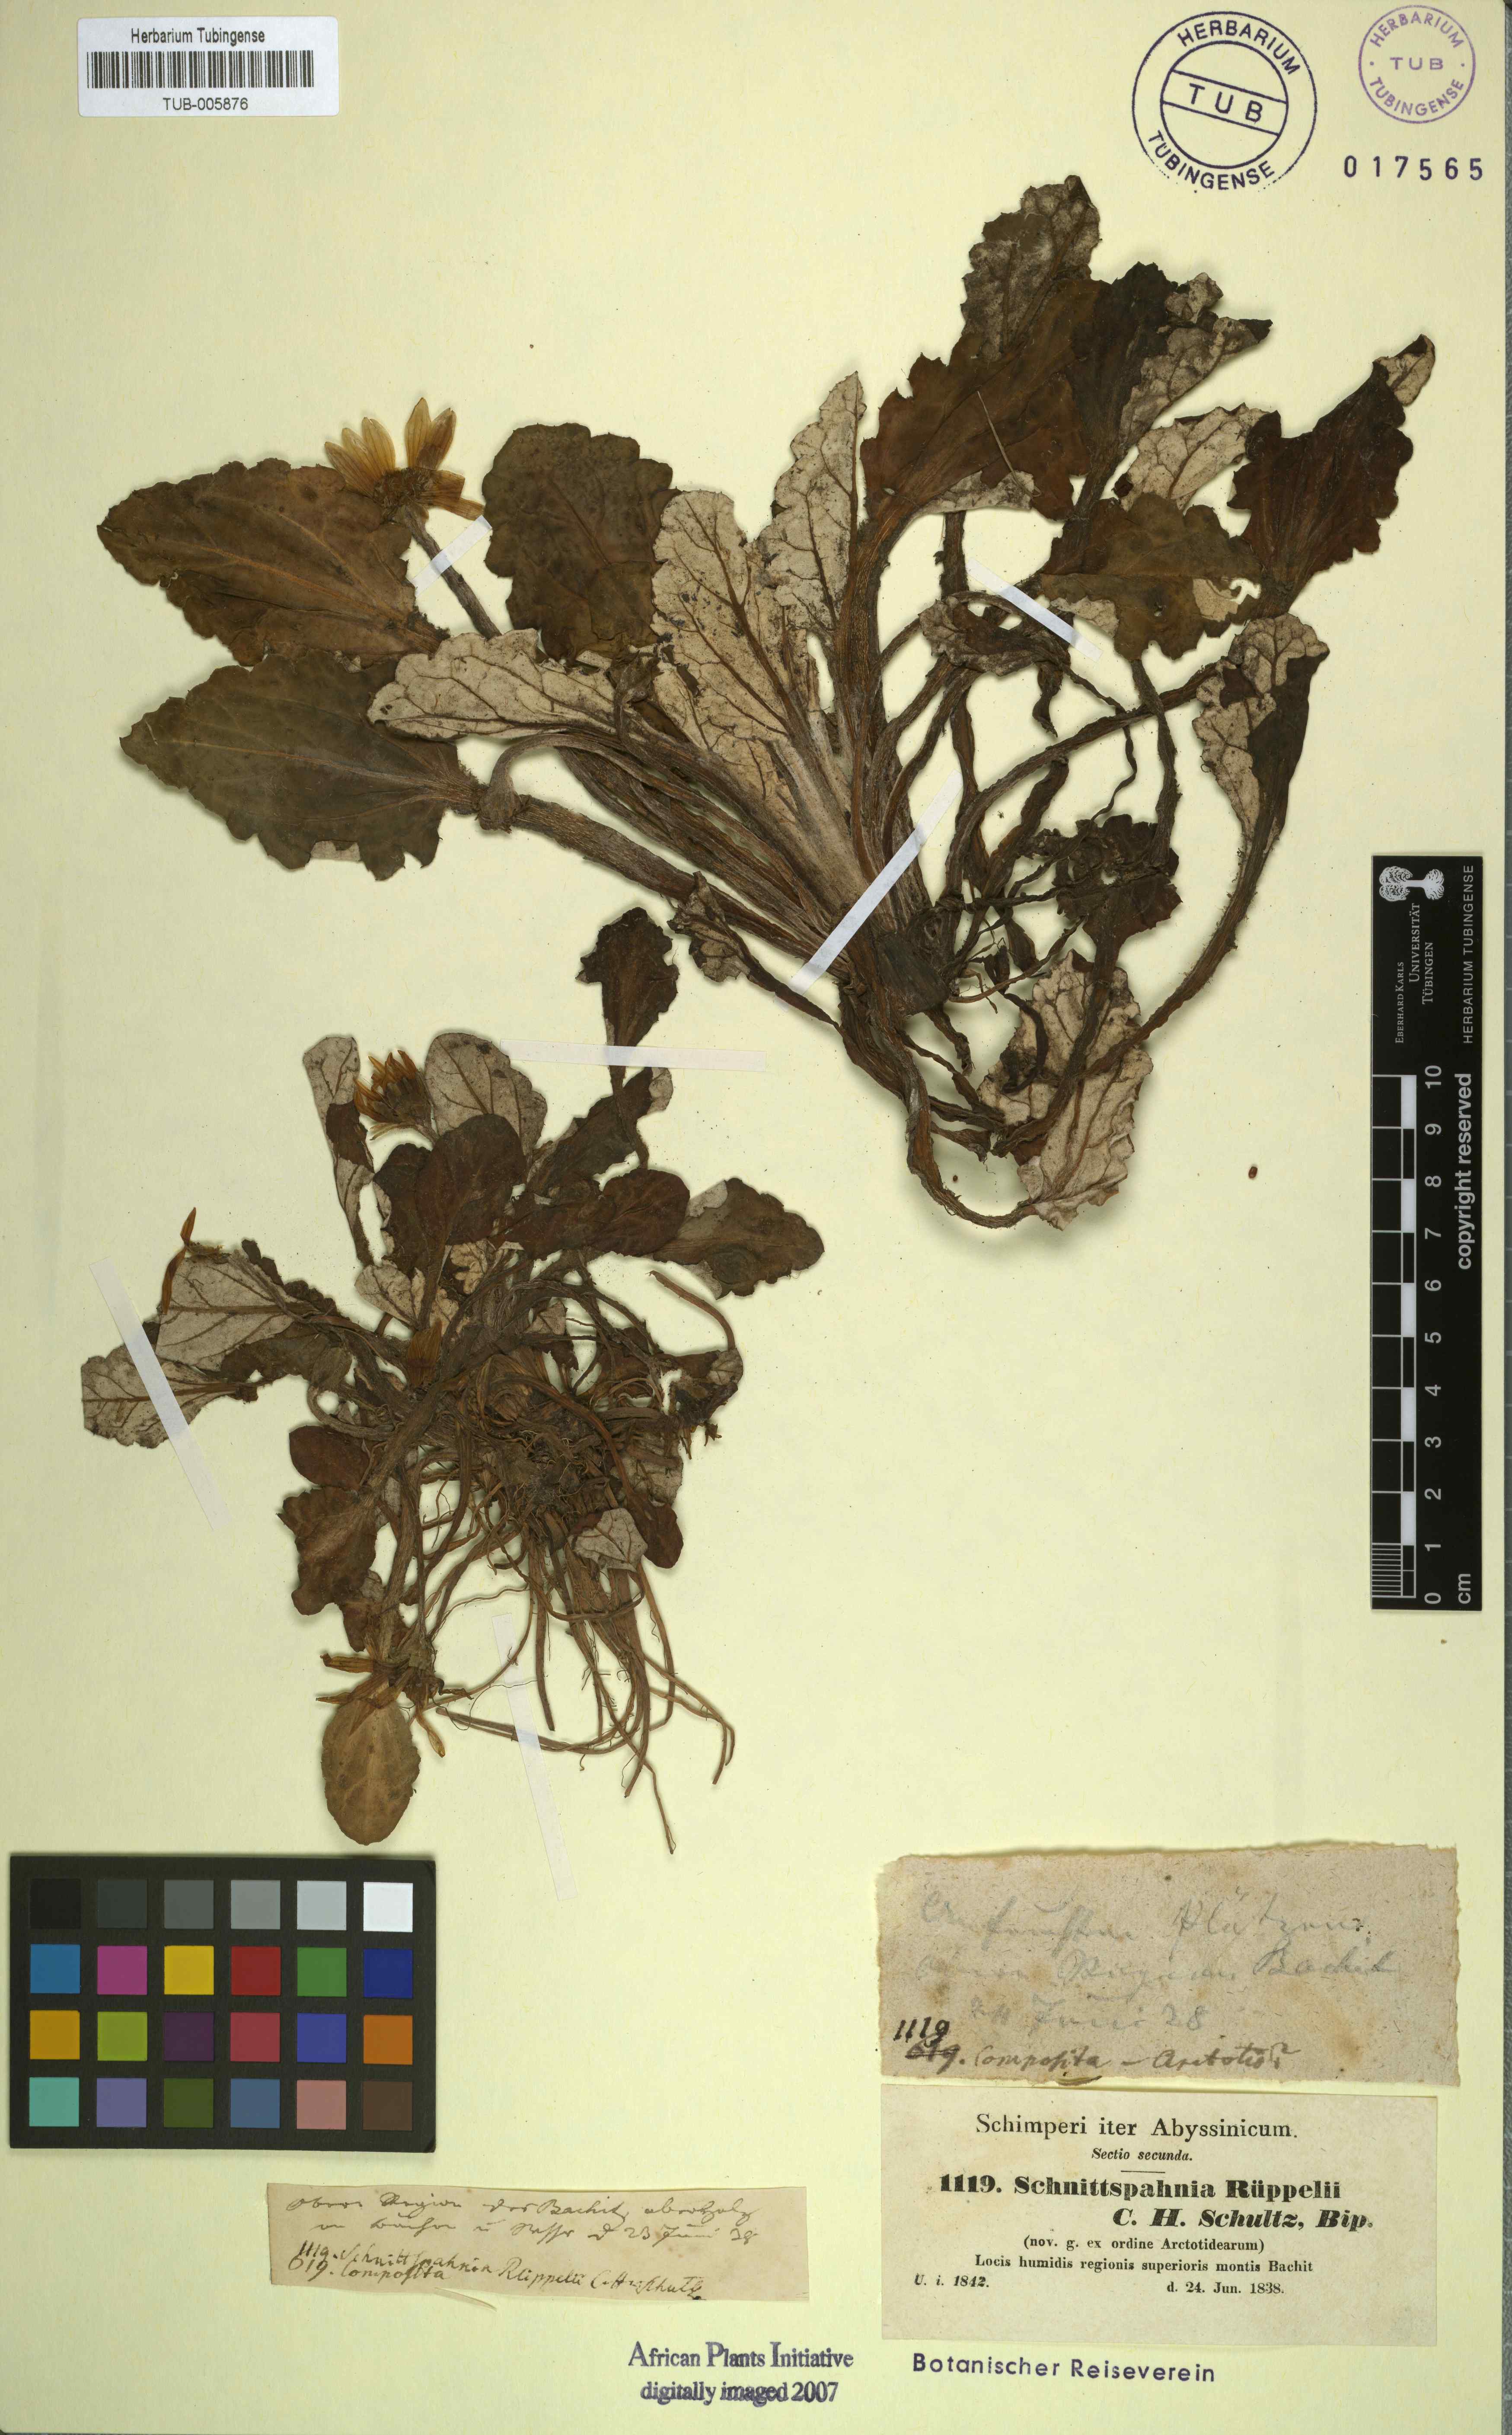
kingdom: Plantae
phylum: Tracheophyta
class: Magnoliopsida
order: Asterales
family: Asteraceae
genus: Haplocarpha
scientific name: Haplocarpha rueppelii
